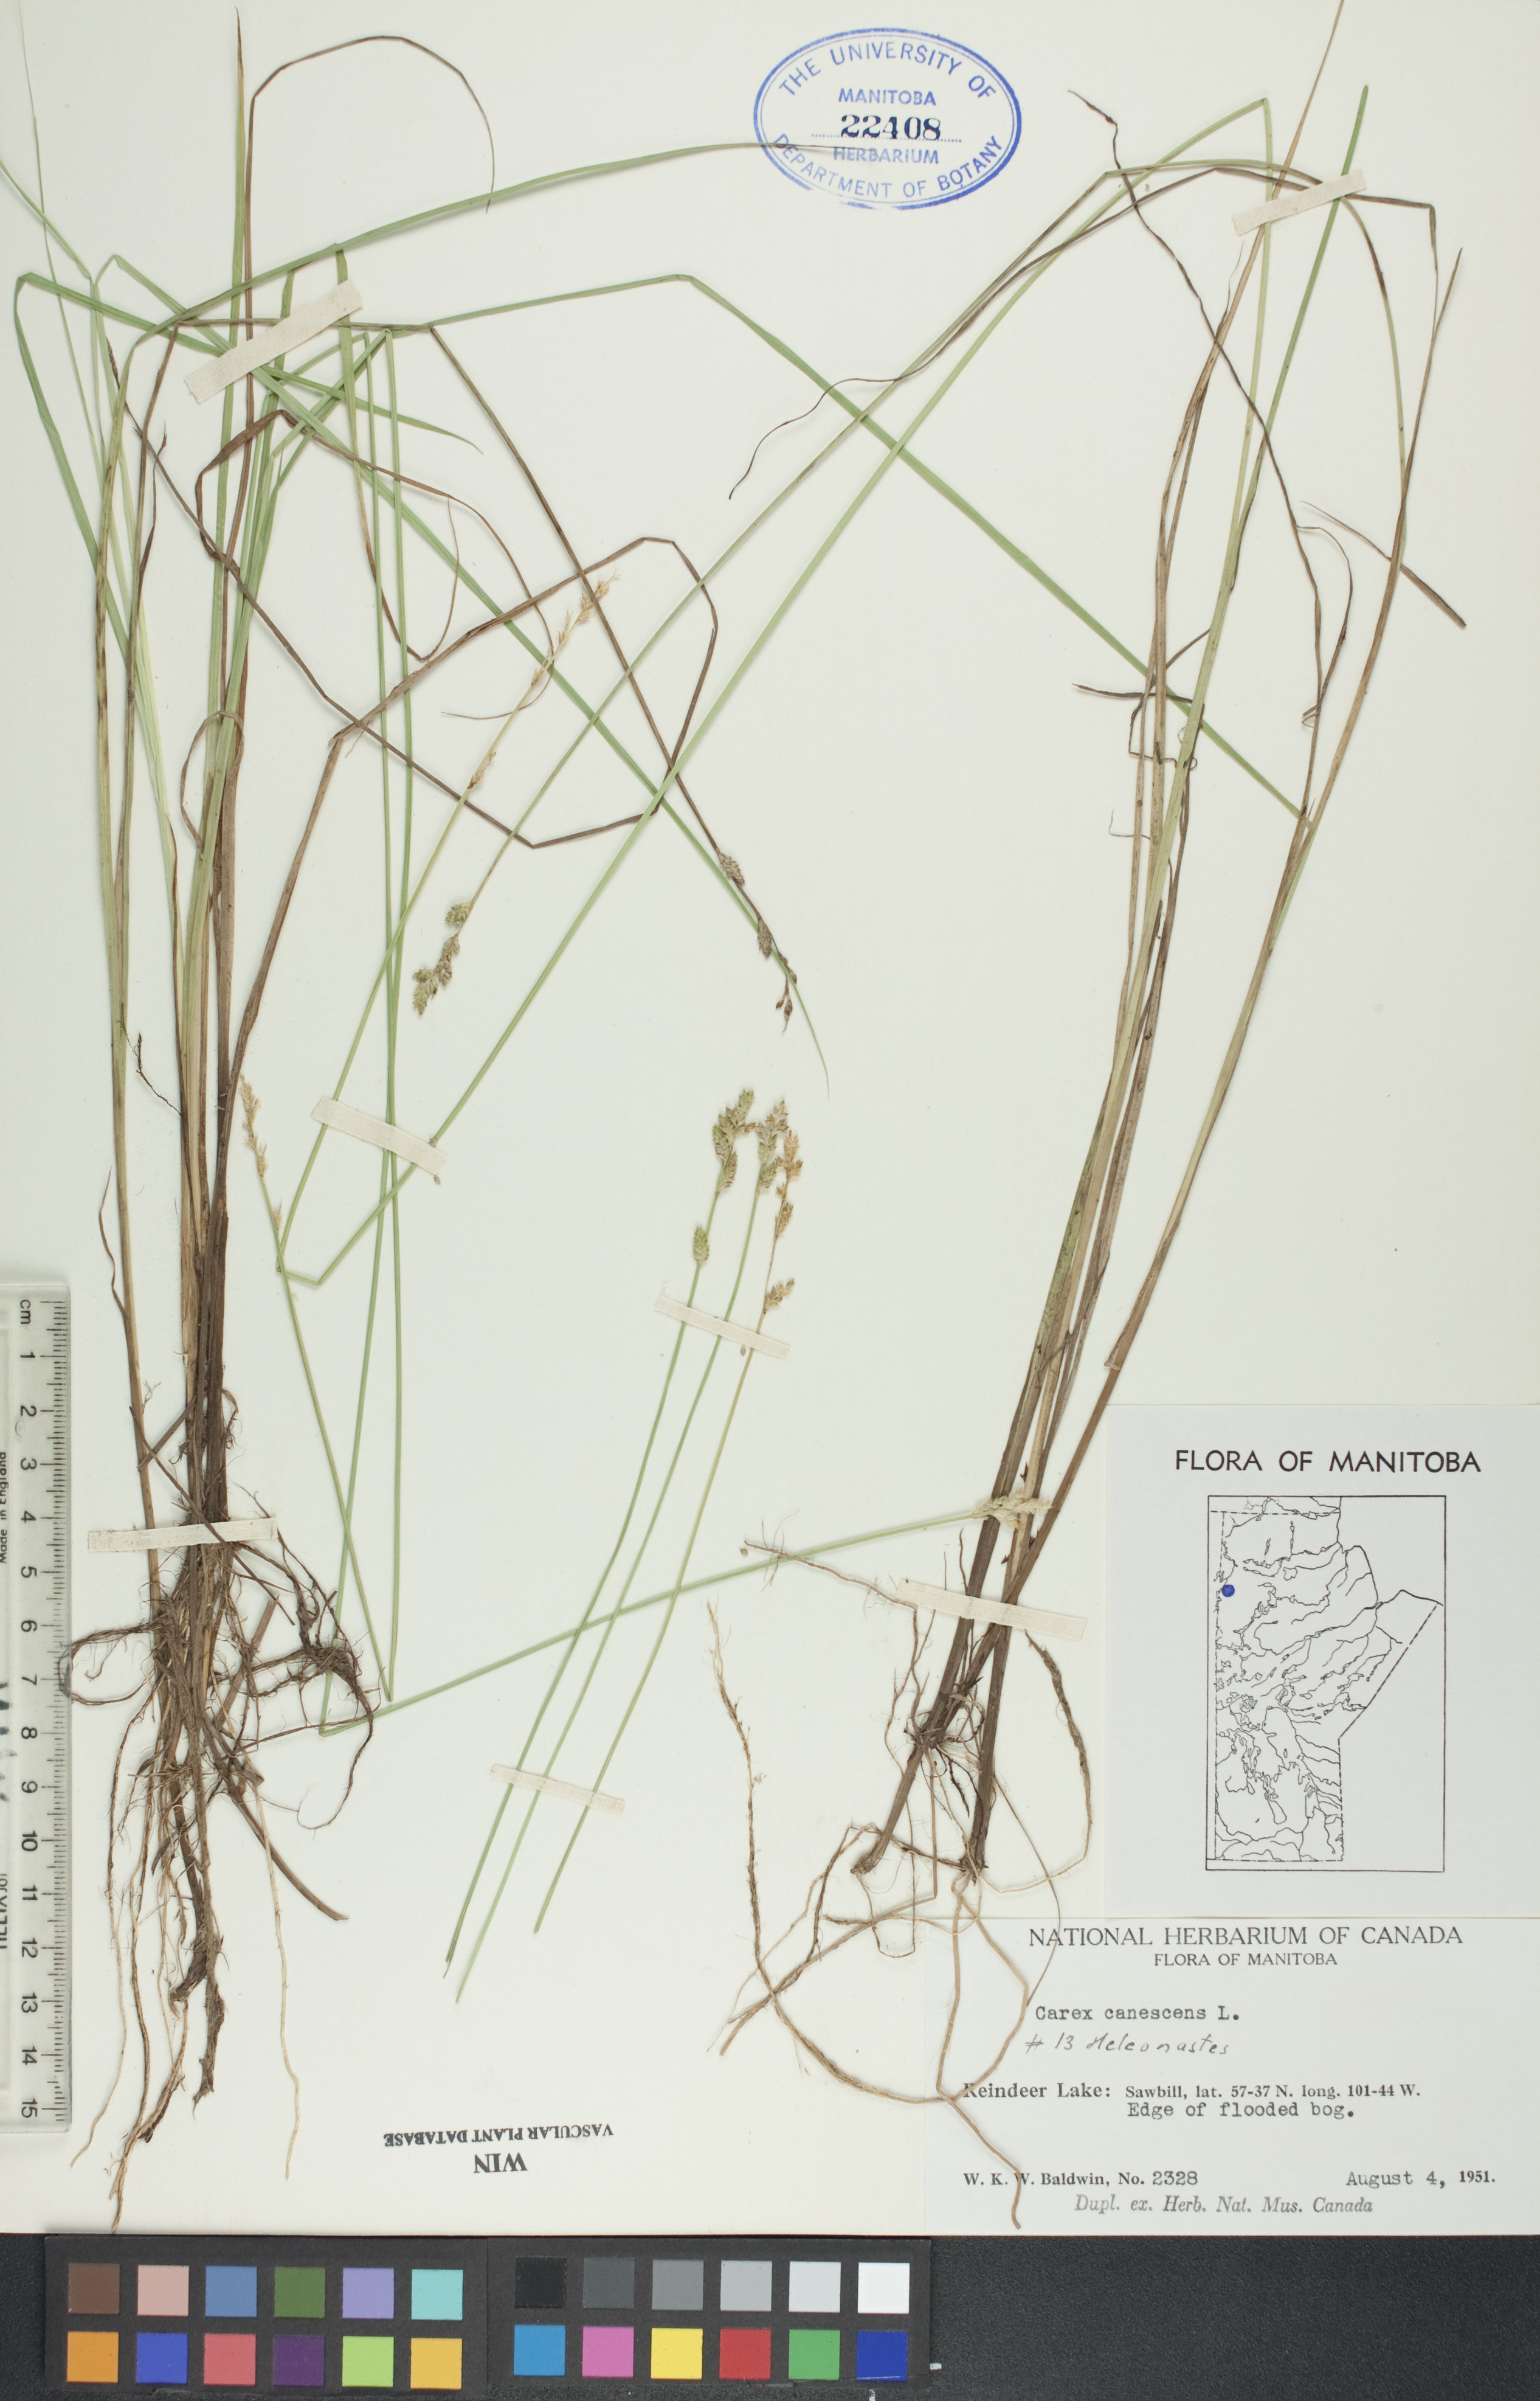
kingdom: Plantae
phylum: Tracheophyta
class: Liliopsida
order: Poales
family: Cyperaceae
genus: Carex
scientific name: Carex canescens
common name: White sedge
